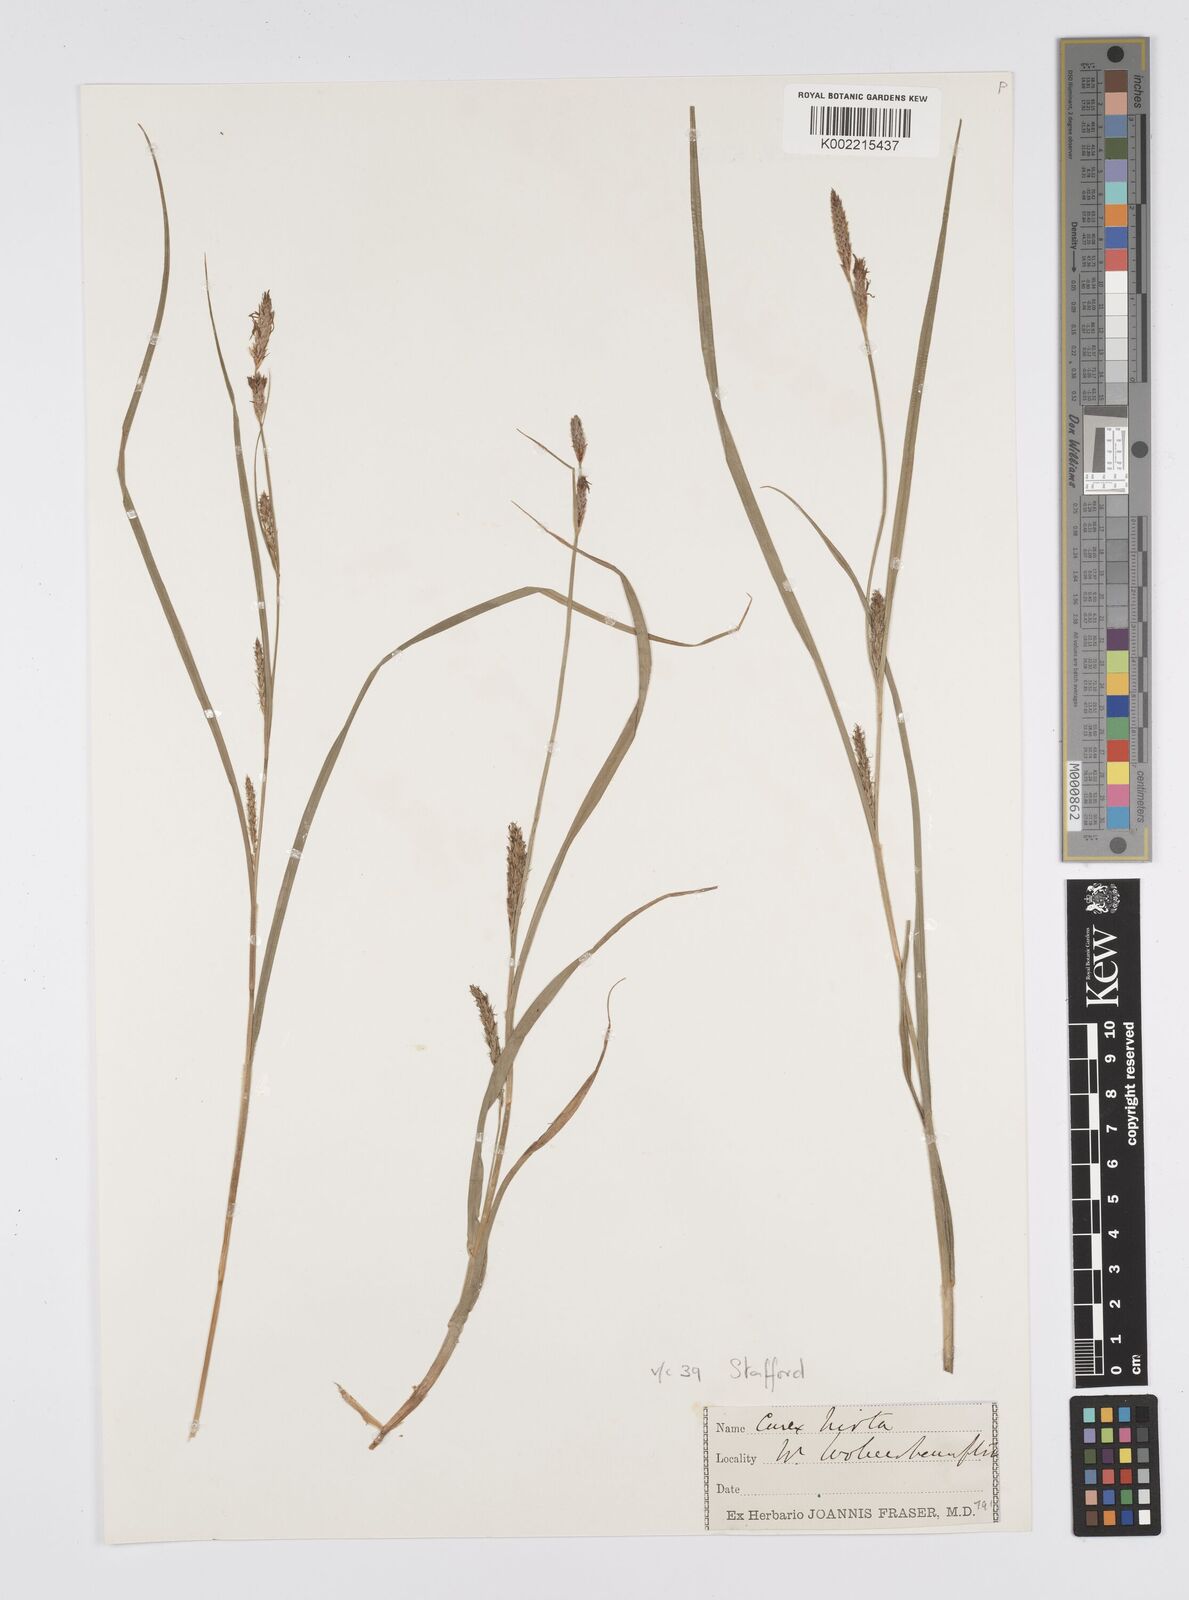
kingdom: Plantae
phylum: Tracheophyta
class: Liliopsida
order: Poales
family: Cyperaceae
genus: Carex
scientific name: Carex hirta
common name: Hairy sedge
